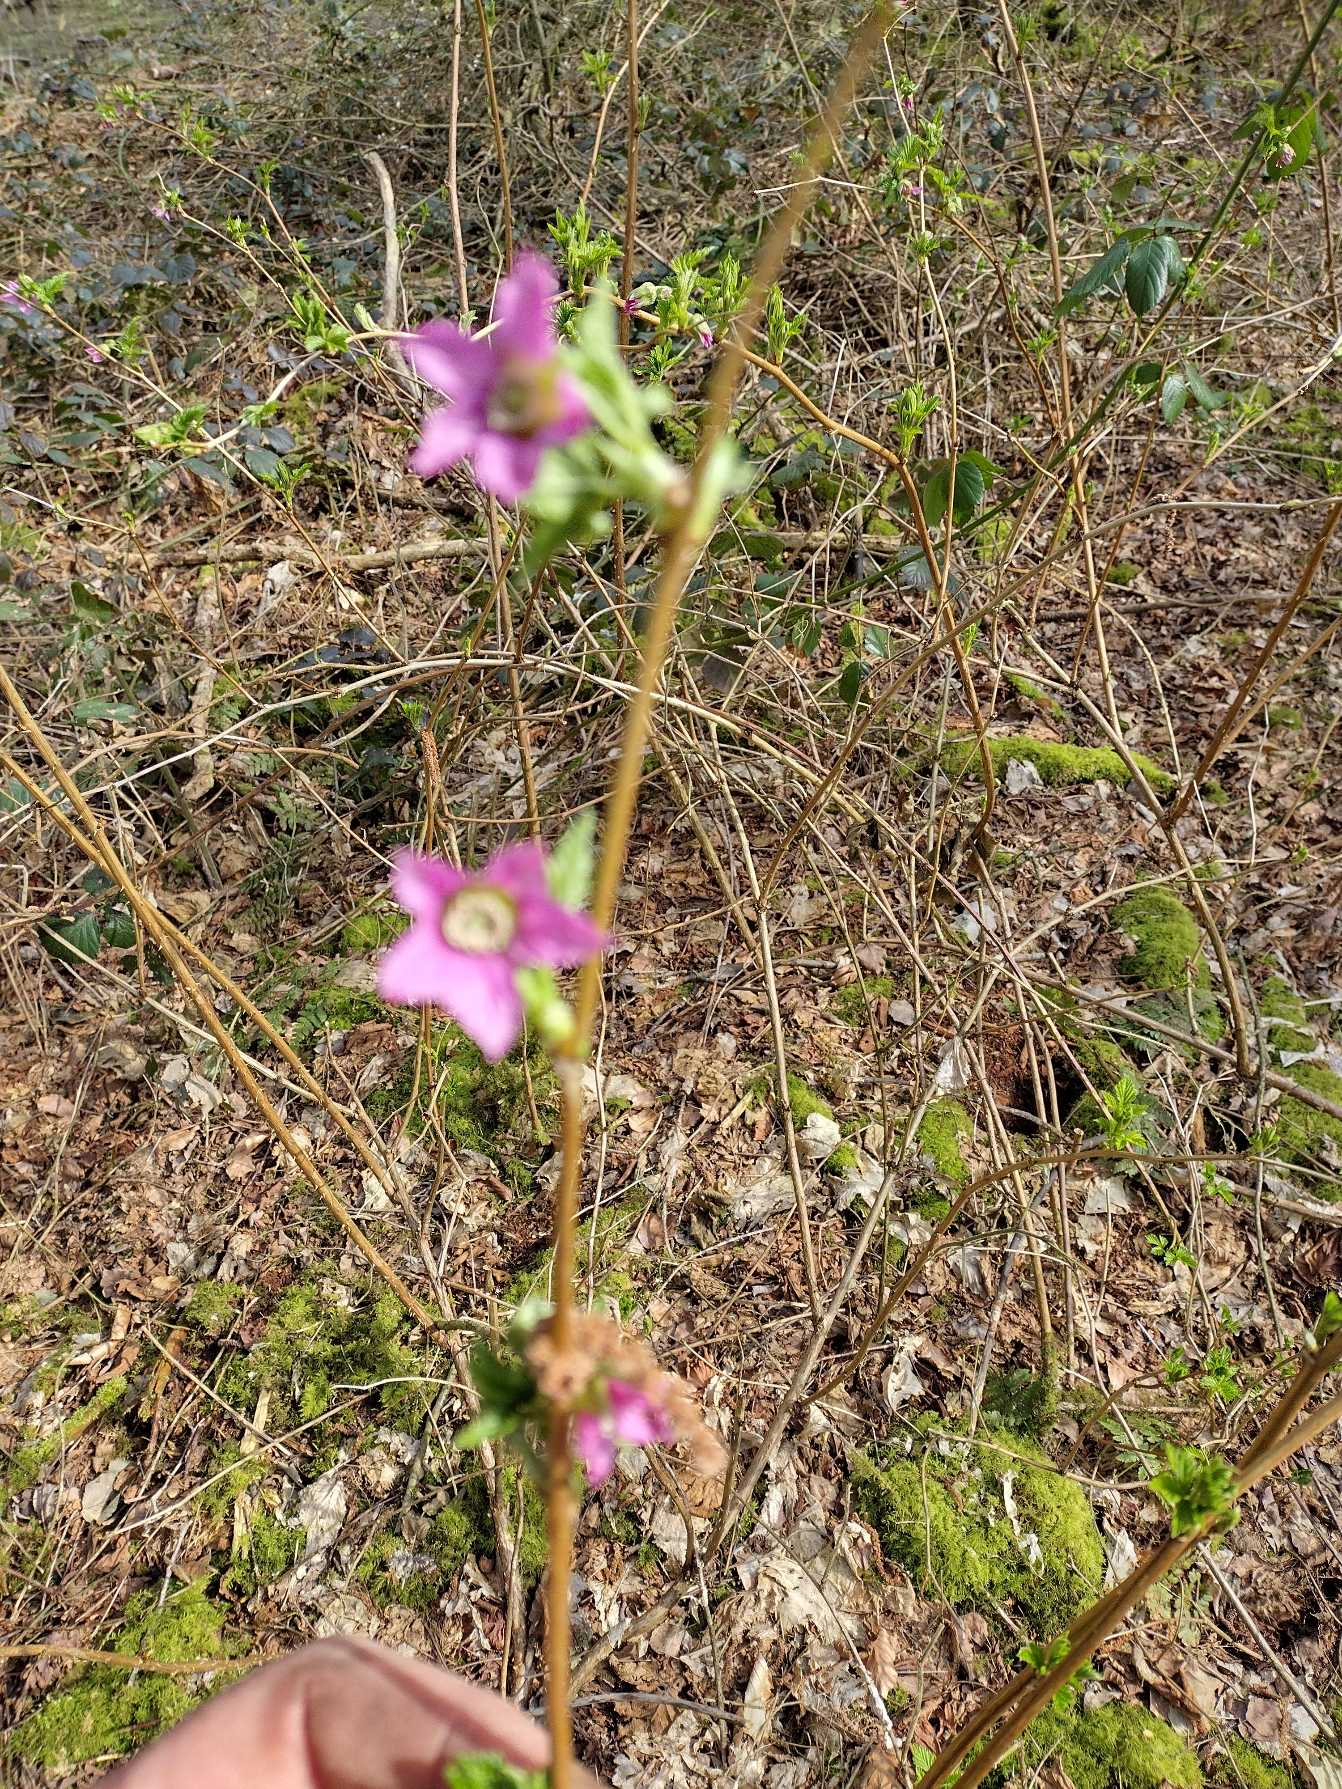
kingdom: Plantae
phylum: Tracheophyta
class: Magnoliopsida
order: Rosales
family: Rosaceae
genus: Rubus
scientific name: Rubus spectabilis
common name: Laksebær
